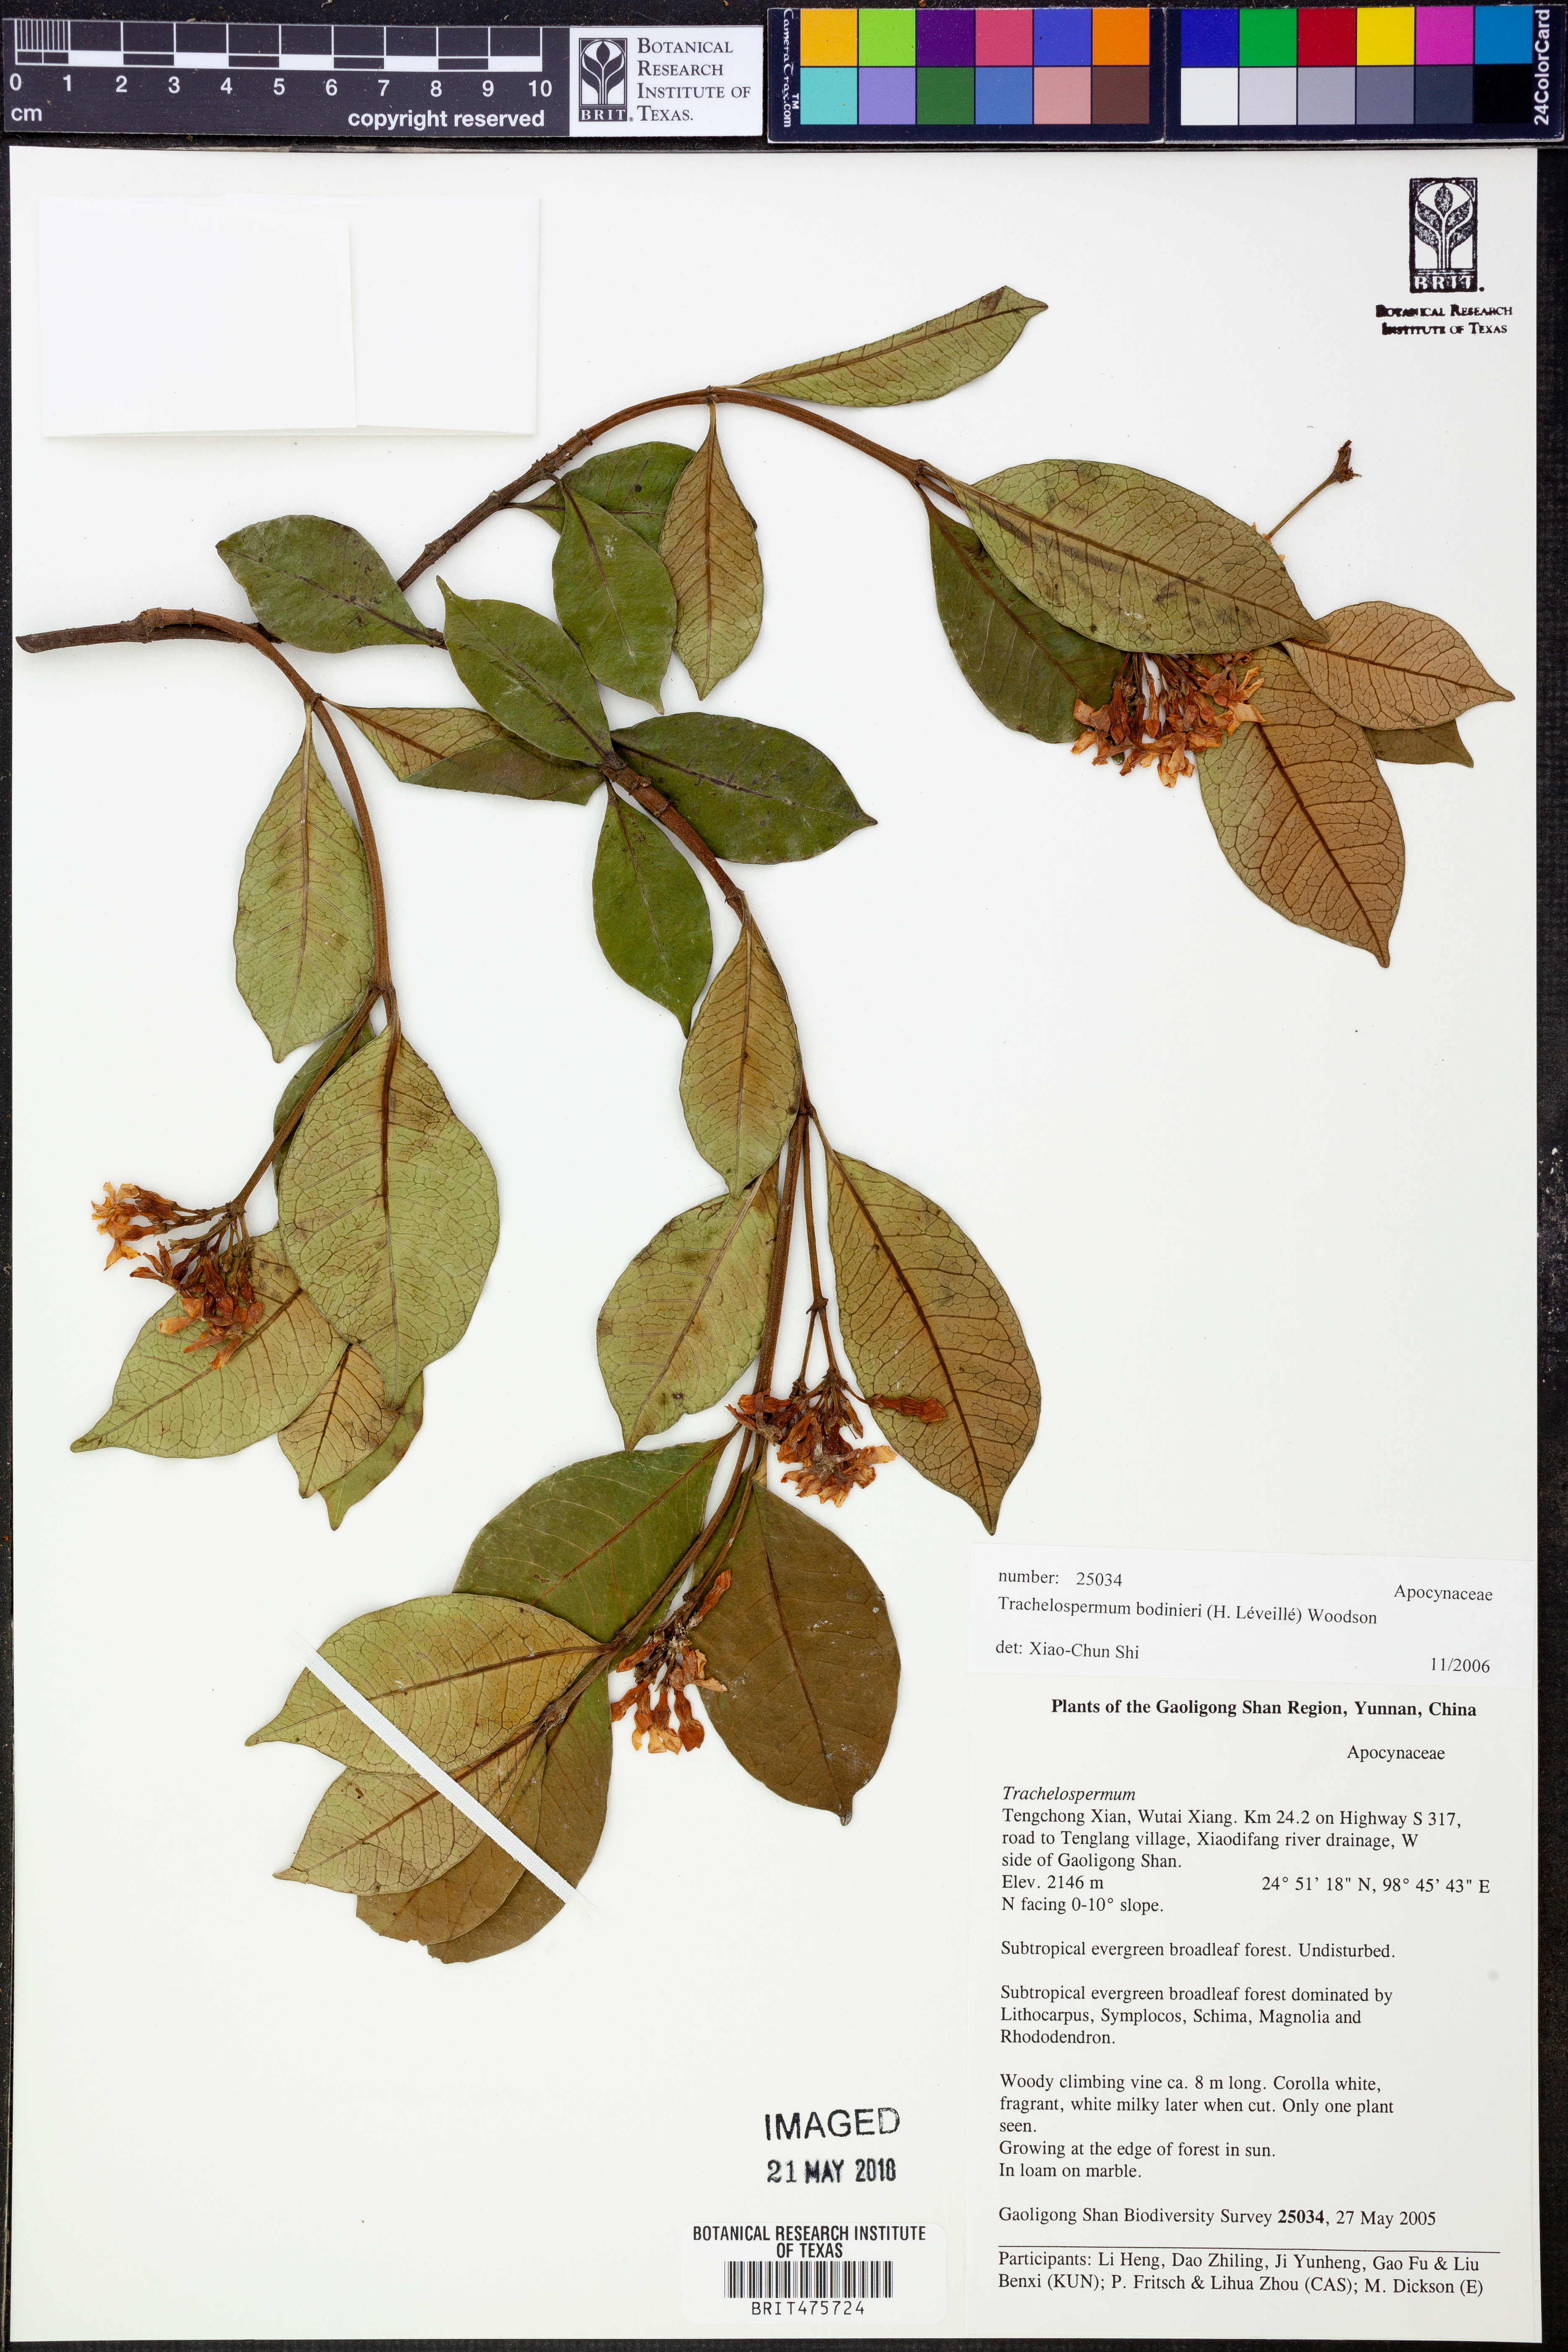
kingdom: Plantae
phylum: Tracheophyta
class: Magnoliopsida
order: Gentianales
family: Apocynaceae
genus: Trachelospermum
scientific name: Trachelospermum bodinieri
